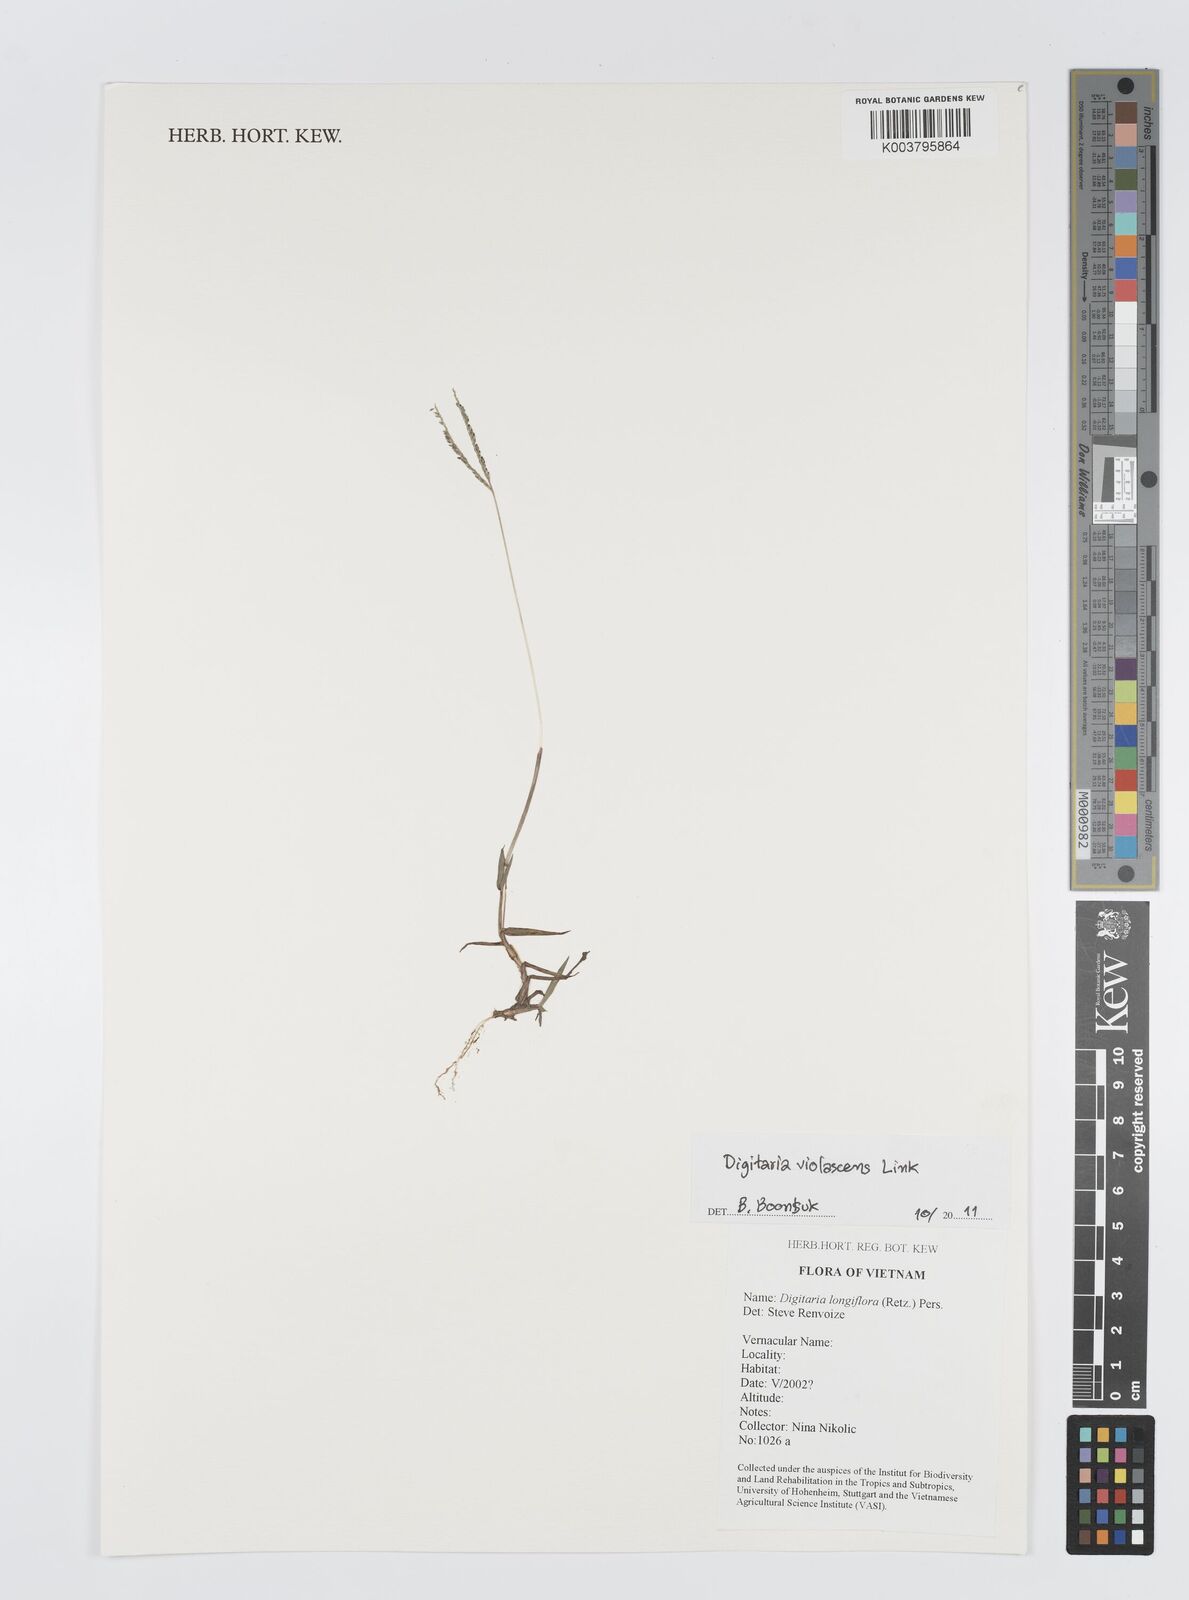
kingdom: Plantae
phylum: Tracheophyta
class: Liliopsida
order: Poales
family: Poaceae
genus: Digitaria
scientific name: Digitaria violascens
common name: Violet crabgrass
